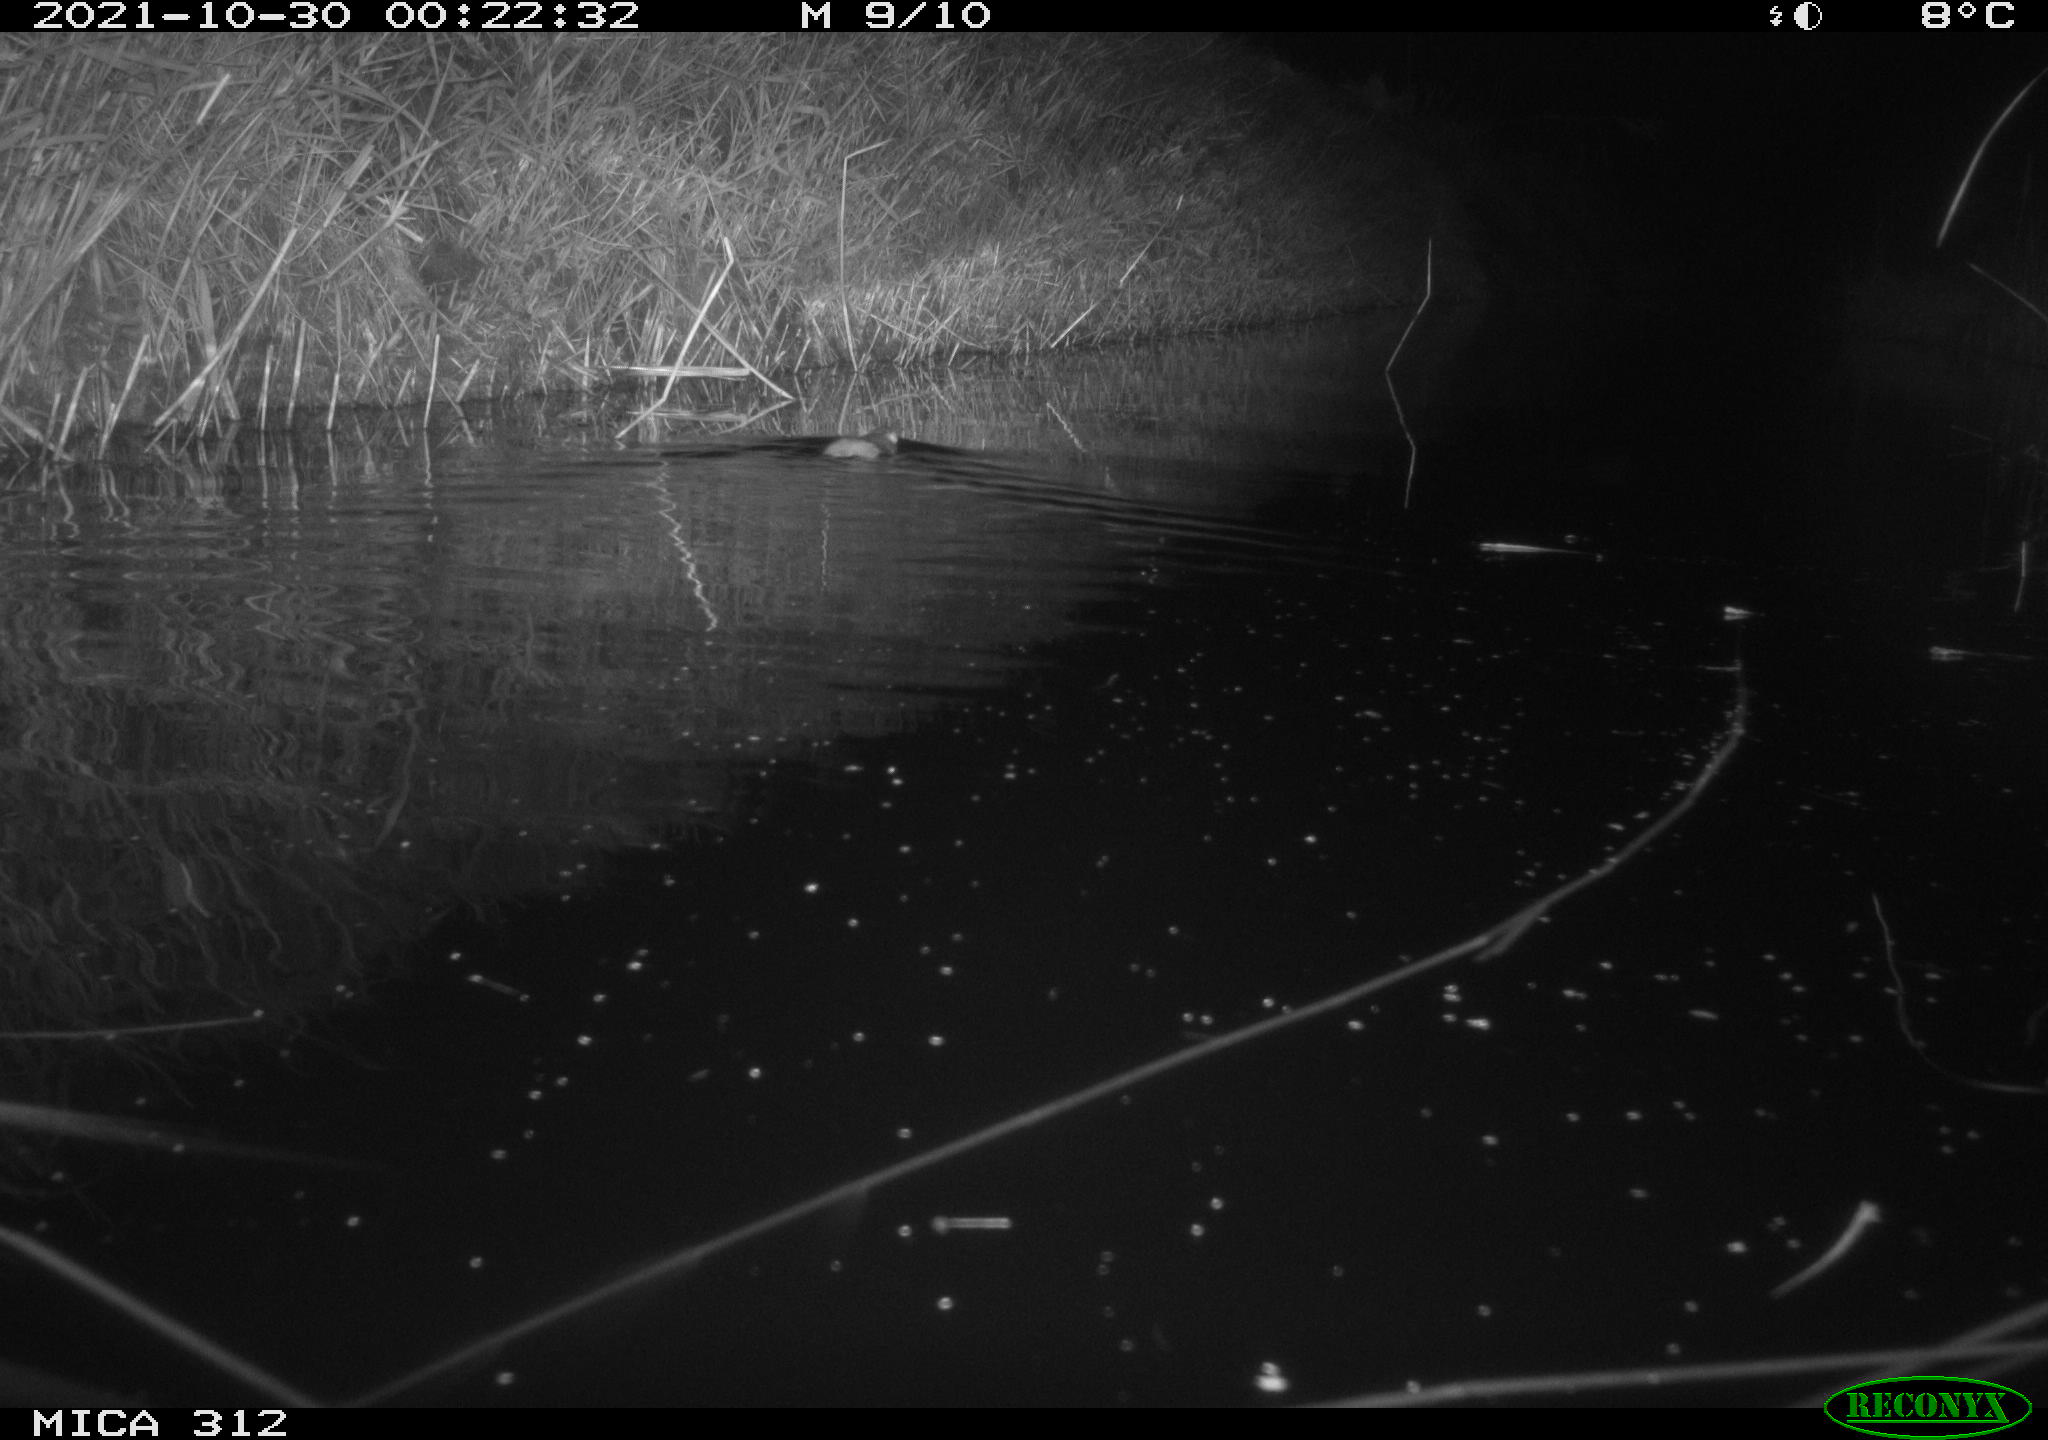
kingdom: Animalia
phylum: Chordata
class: Mammalia
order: Rodentia
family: Muridae
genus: Rattus
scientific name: Rattus norvegicus
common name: Brown rat
